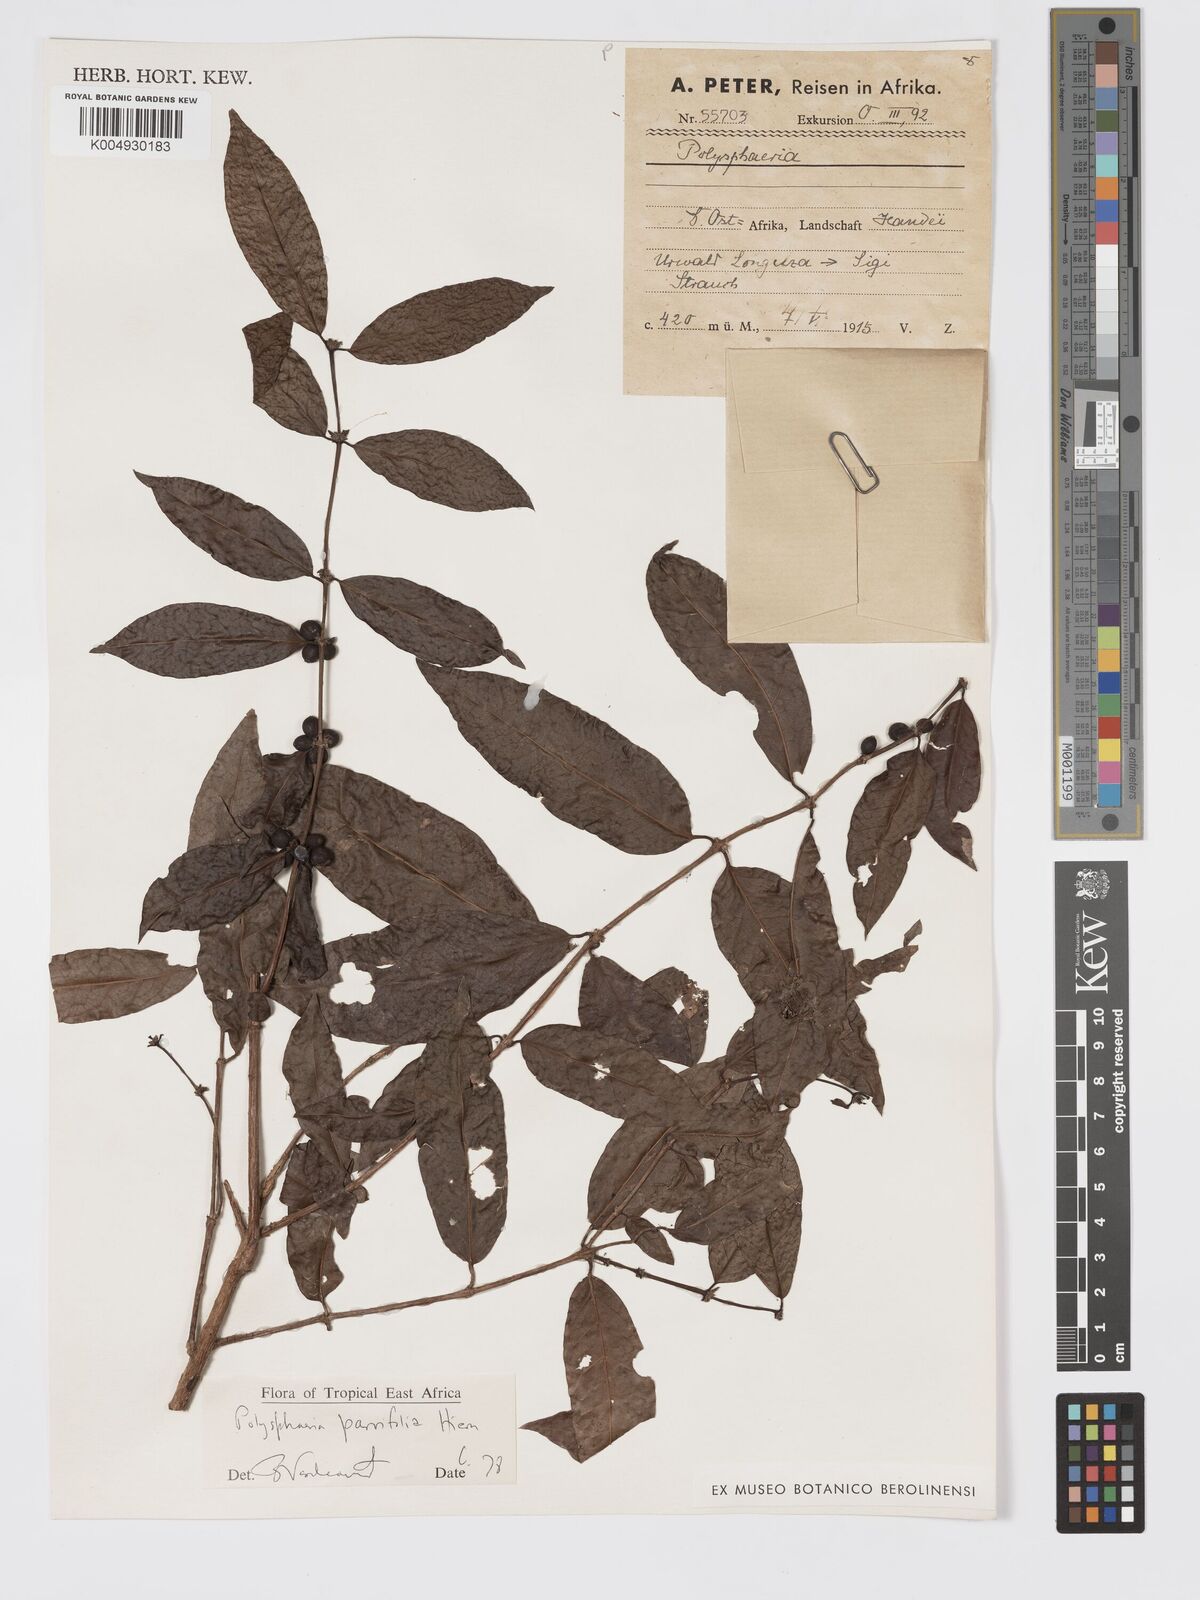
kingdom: Plantae
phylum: Tracheophyta
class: Magnoliopsida
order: Gentianales
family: Rubiaceae
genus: Polysphaeria
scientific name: Polysphaeria parvifolia
